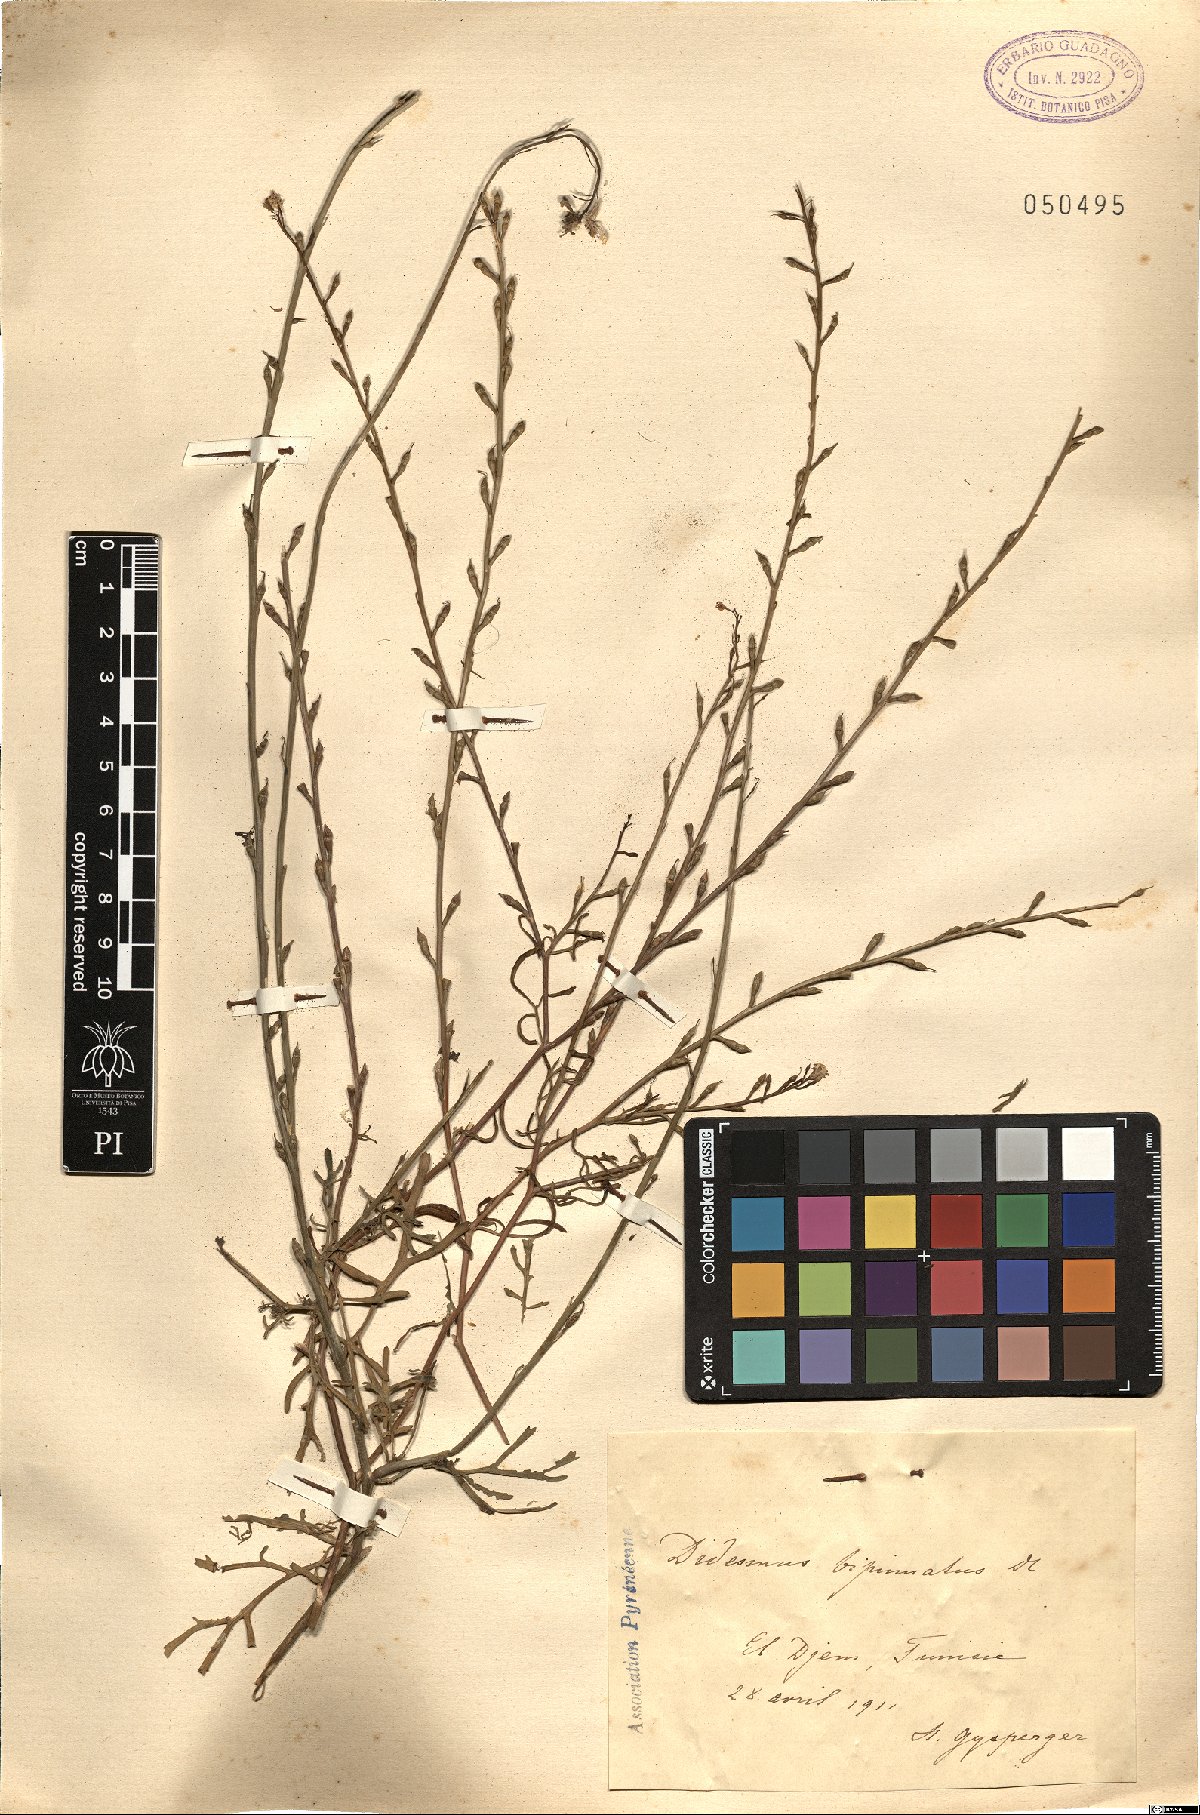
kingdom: Plantae
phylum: Tracheophyta
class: Magnoliopsida
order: Brassicales
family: Brassicaceae
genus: Didesmus
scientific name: Didesmus bipinnatus
